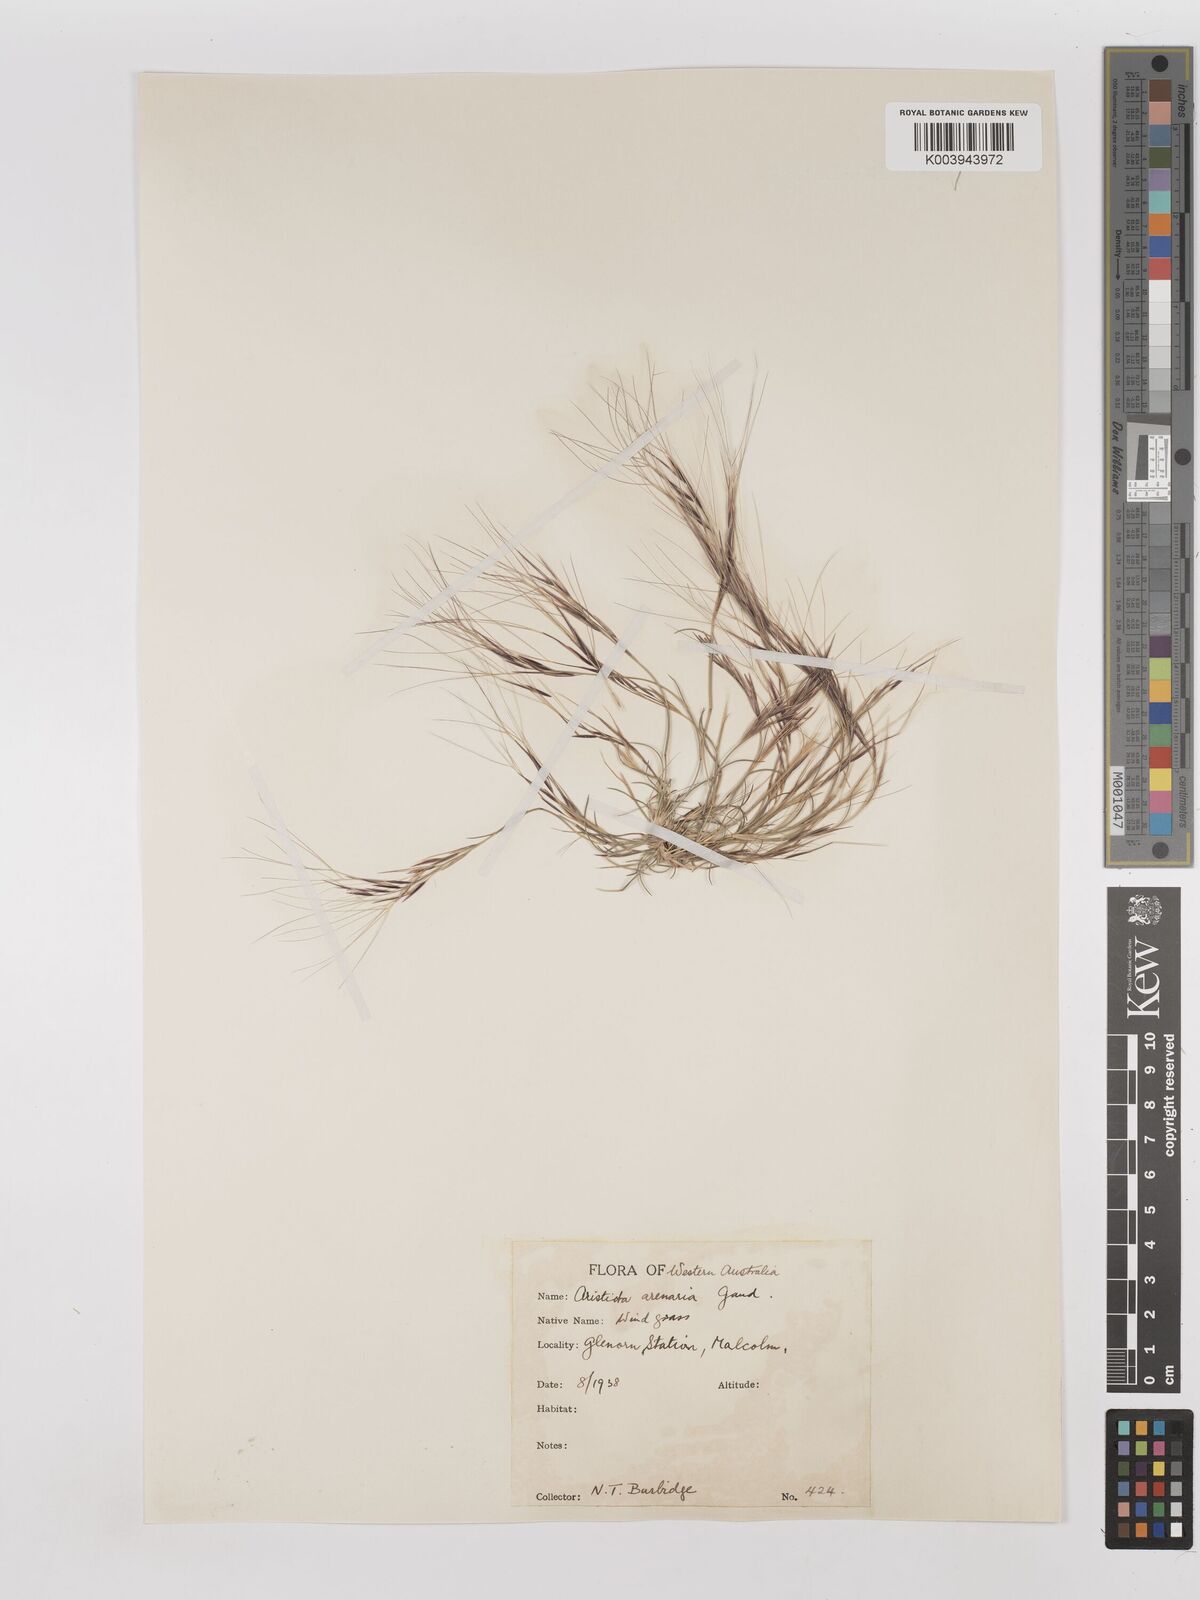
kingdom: Plantae
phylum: Tracheophyta
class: Liliopsida
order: Poales
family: Poaceae
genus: Aristida
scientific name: Aristida contorta
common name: Bunch kerosene grass
